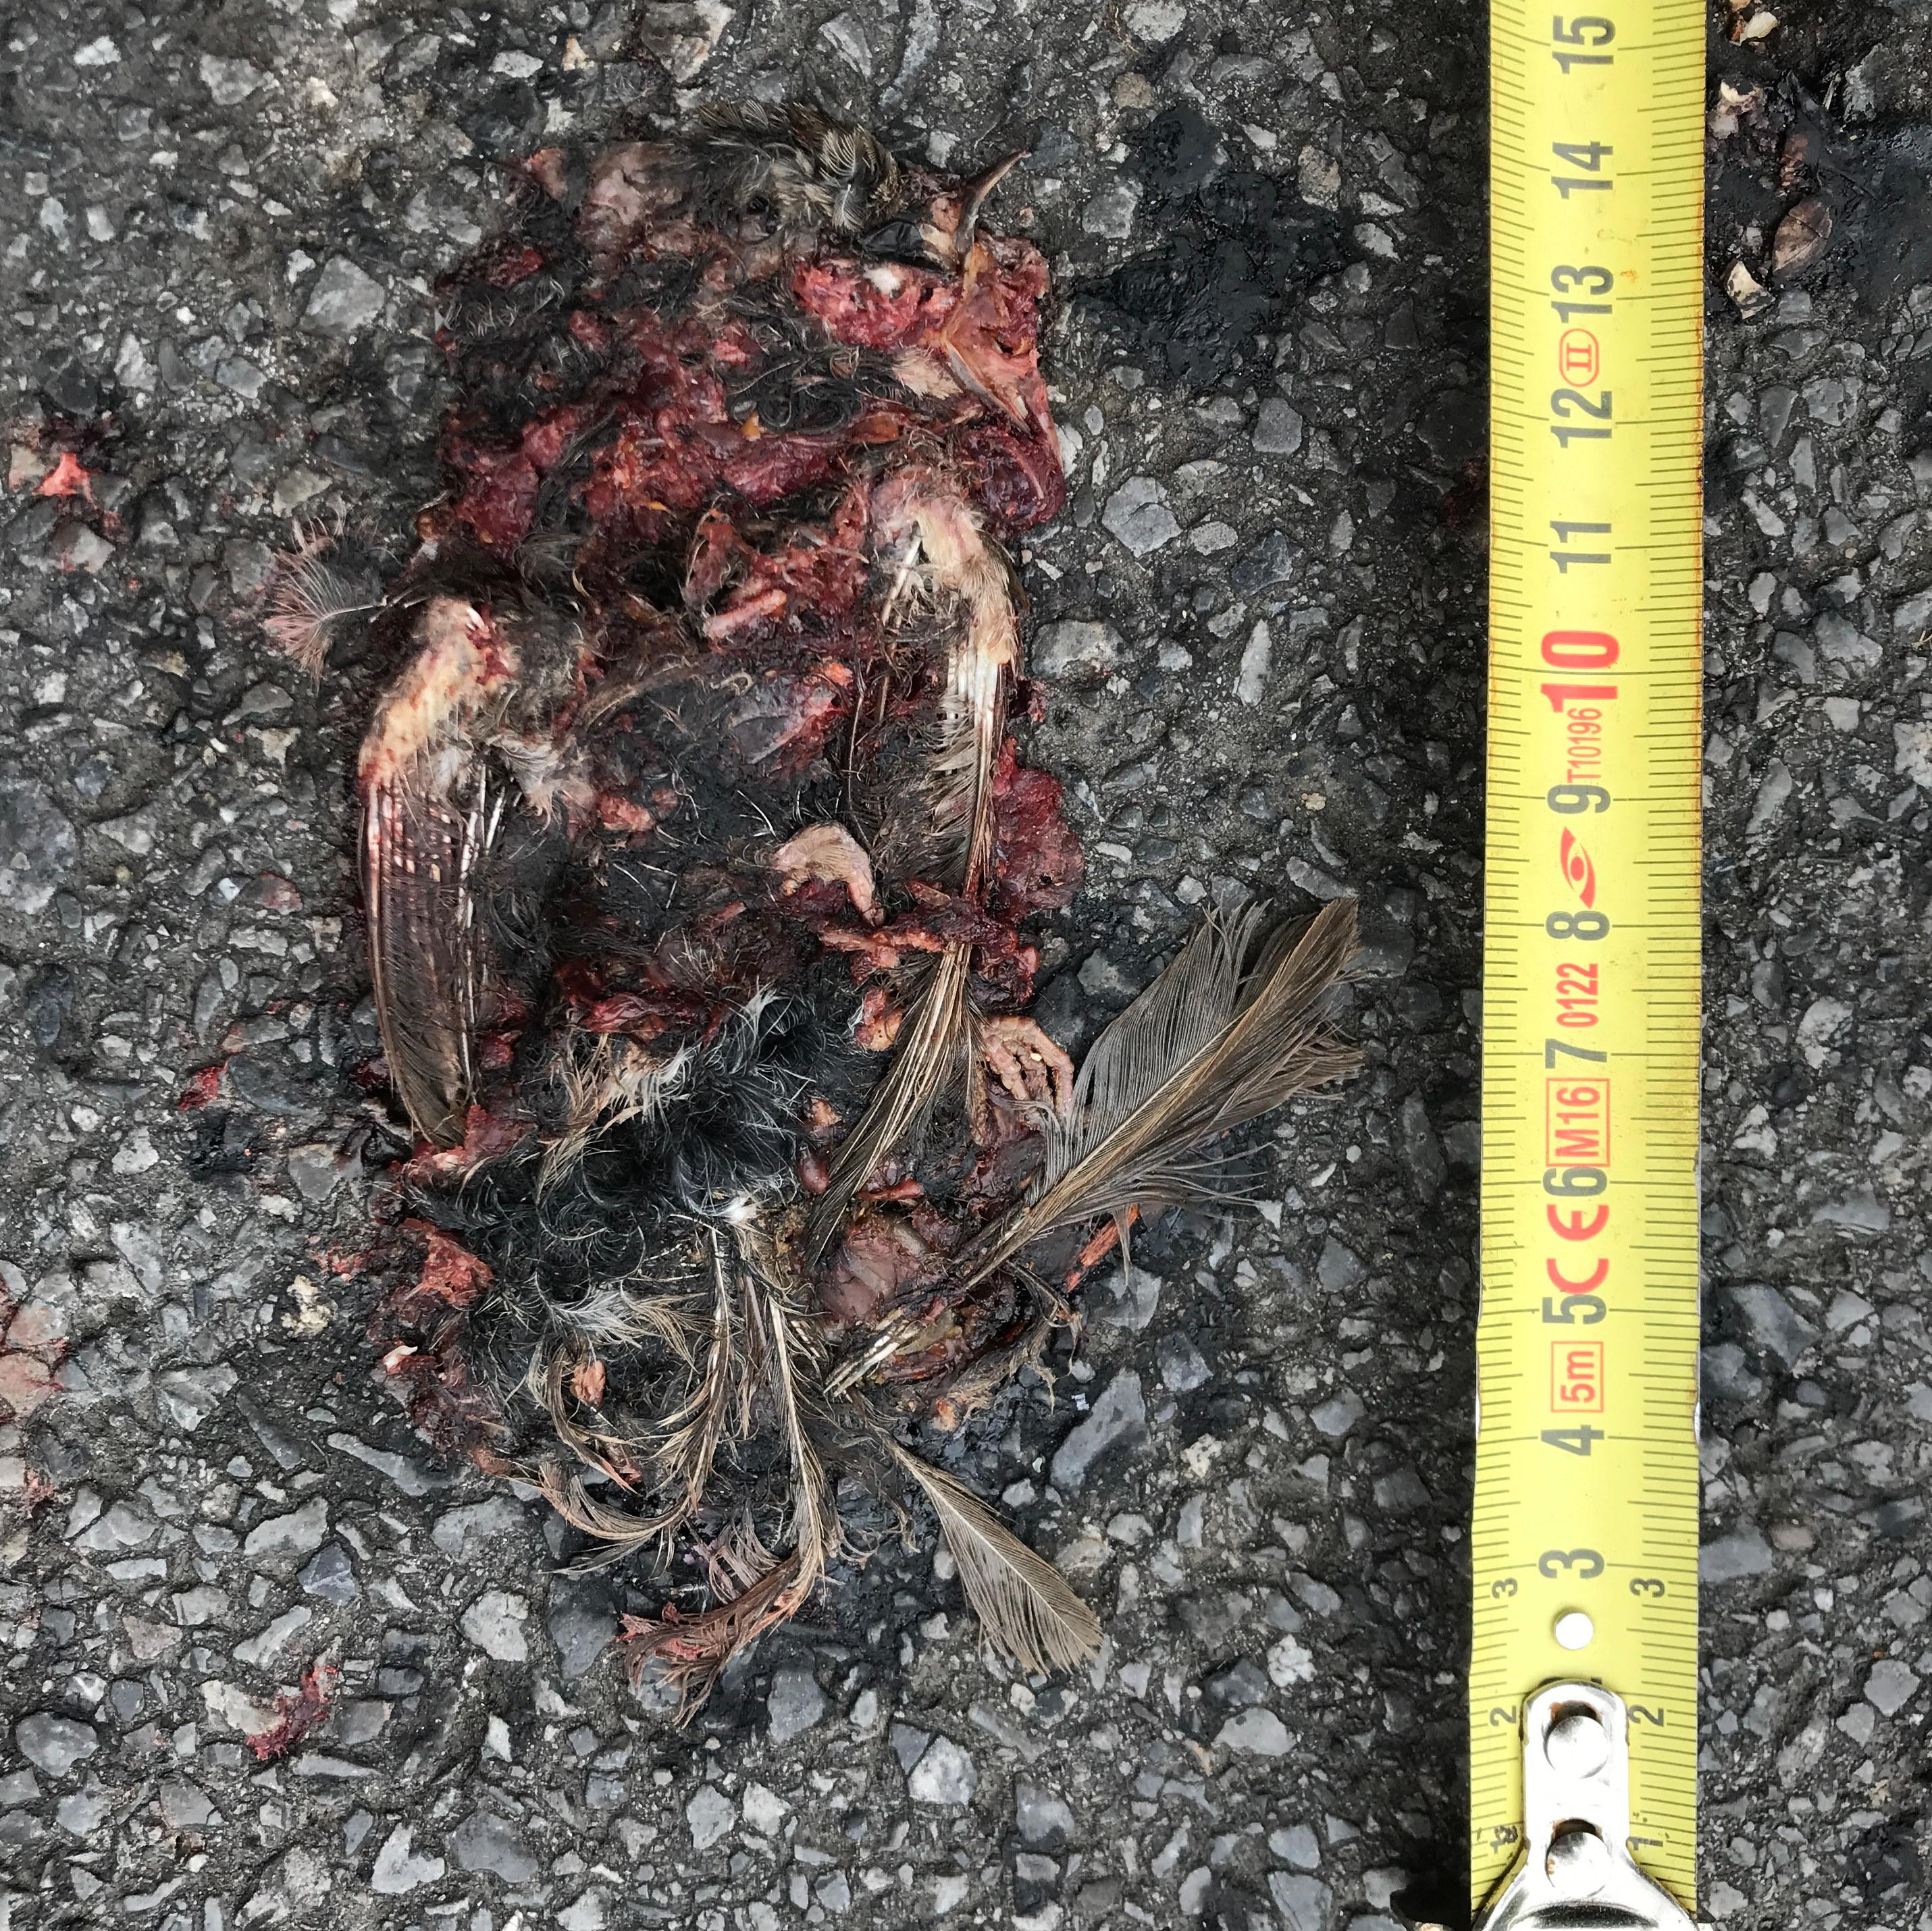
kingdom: Animalia
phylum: Chordata
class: Aves
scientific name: Aves
